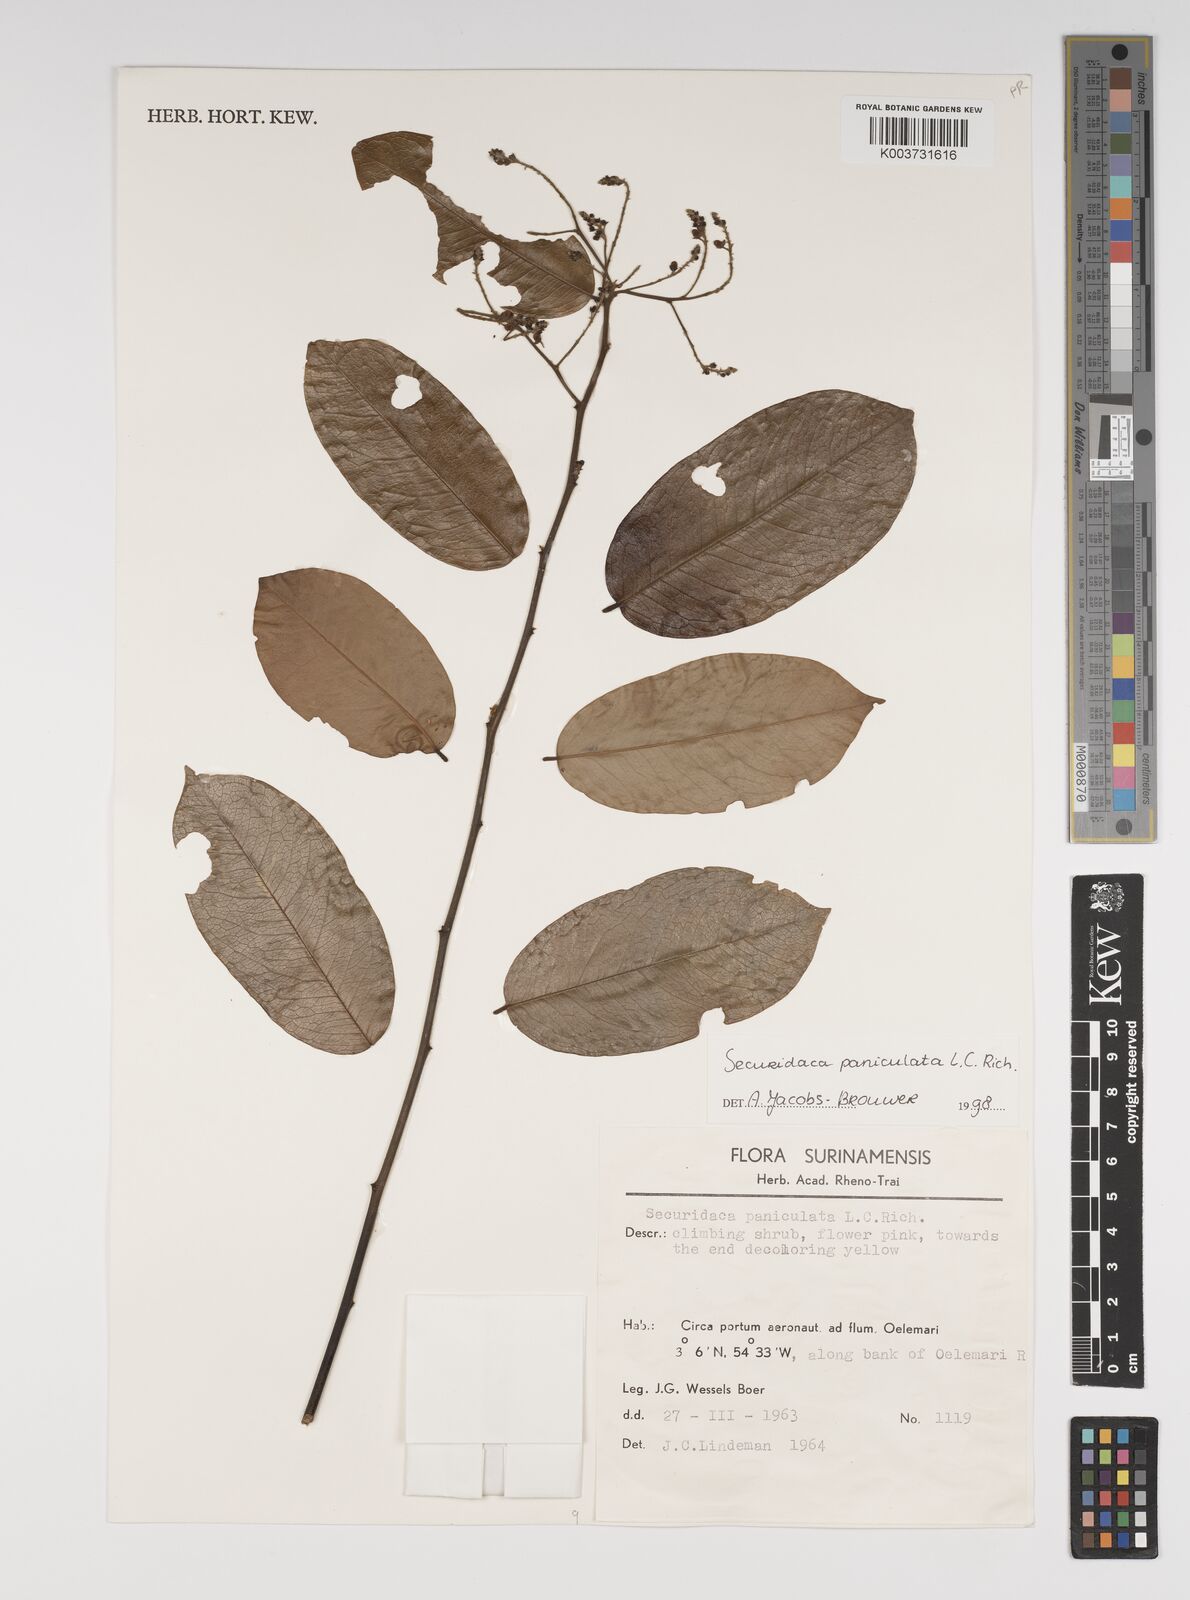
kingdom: Plantae
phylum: Tracheophyta
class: Magnoliopsida
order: Fabales
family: Polygalaceae
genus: Securidaca
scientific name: Securidaca paniculata
